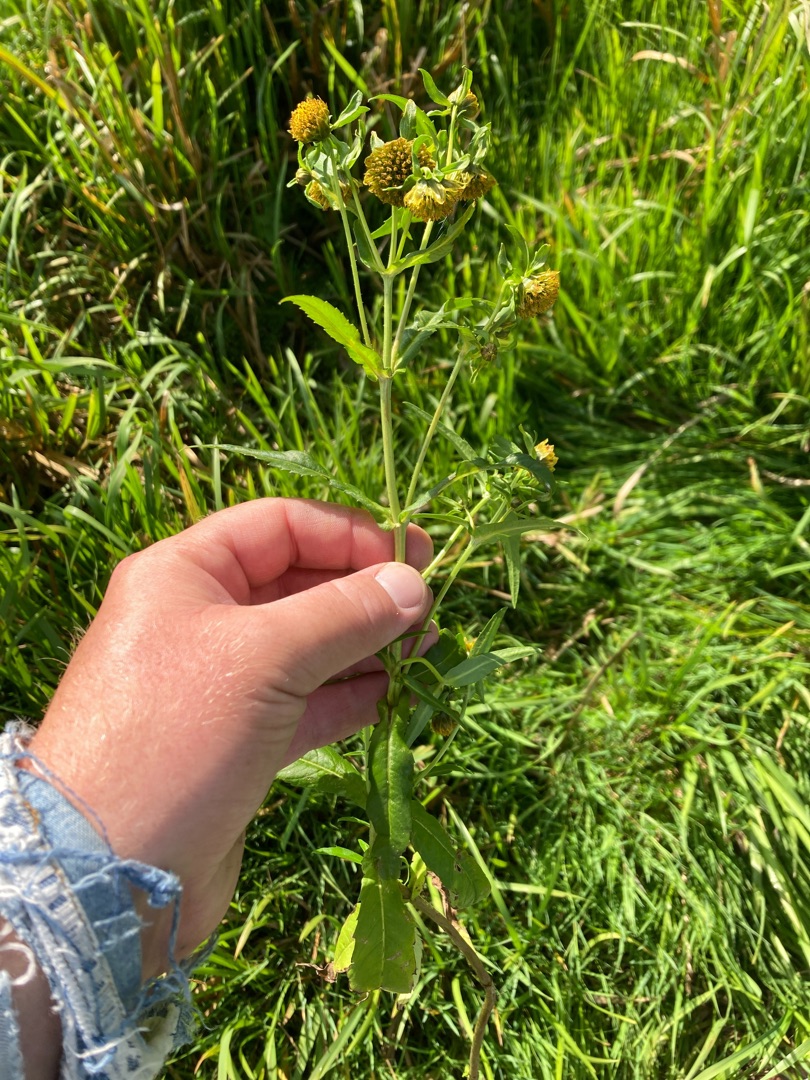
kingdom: Plantae
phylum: Tracheophyta
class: Magnoliopsida
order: Asterales
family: Asteraceae
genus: Bidens
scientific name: Bidens cernua
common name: Nikkende brøndsel
